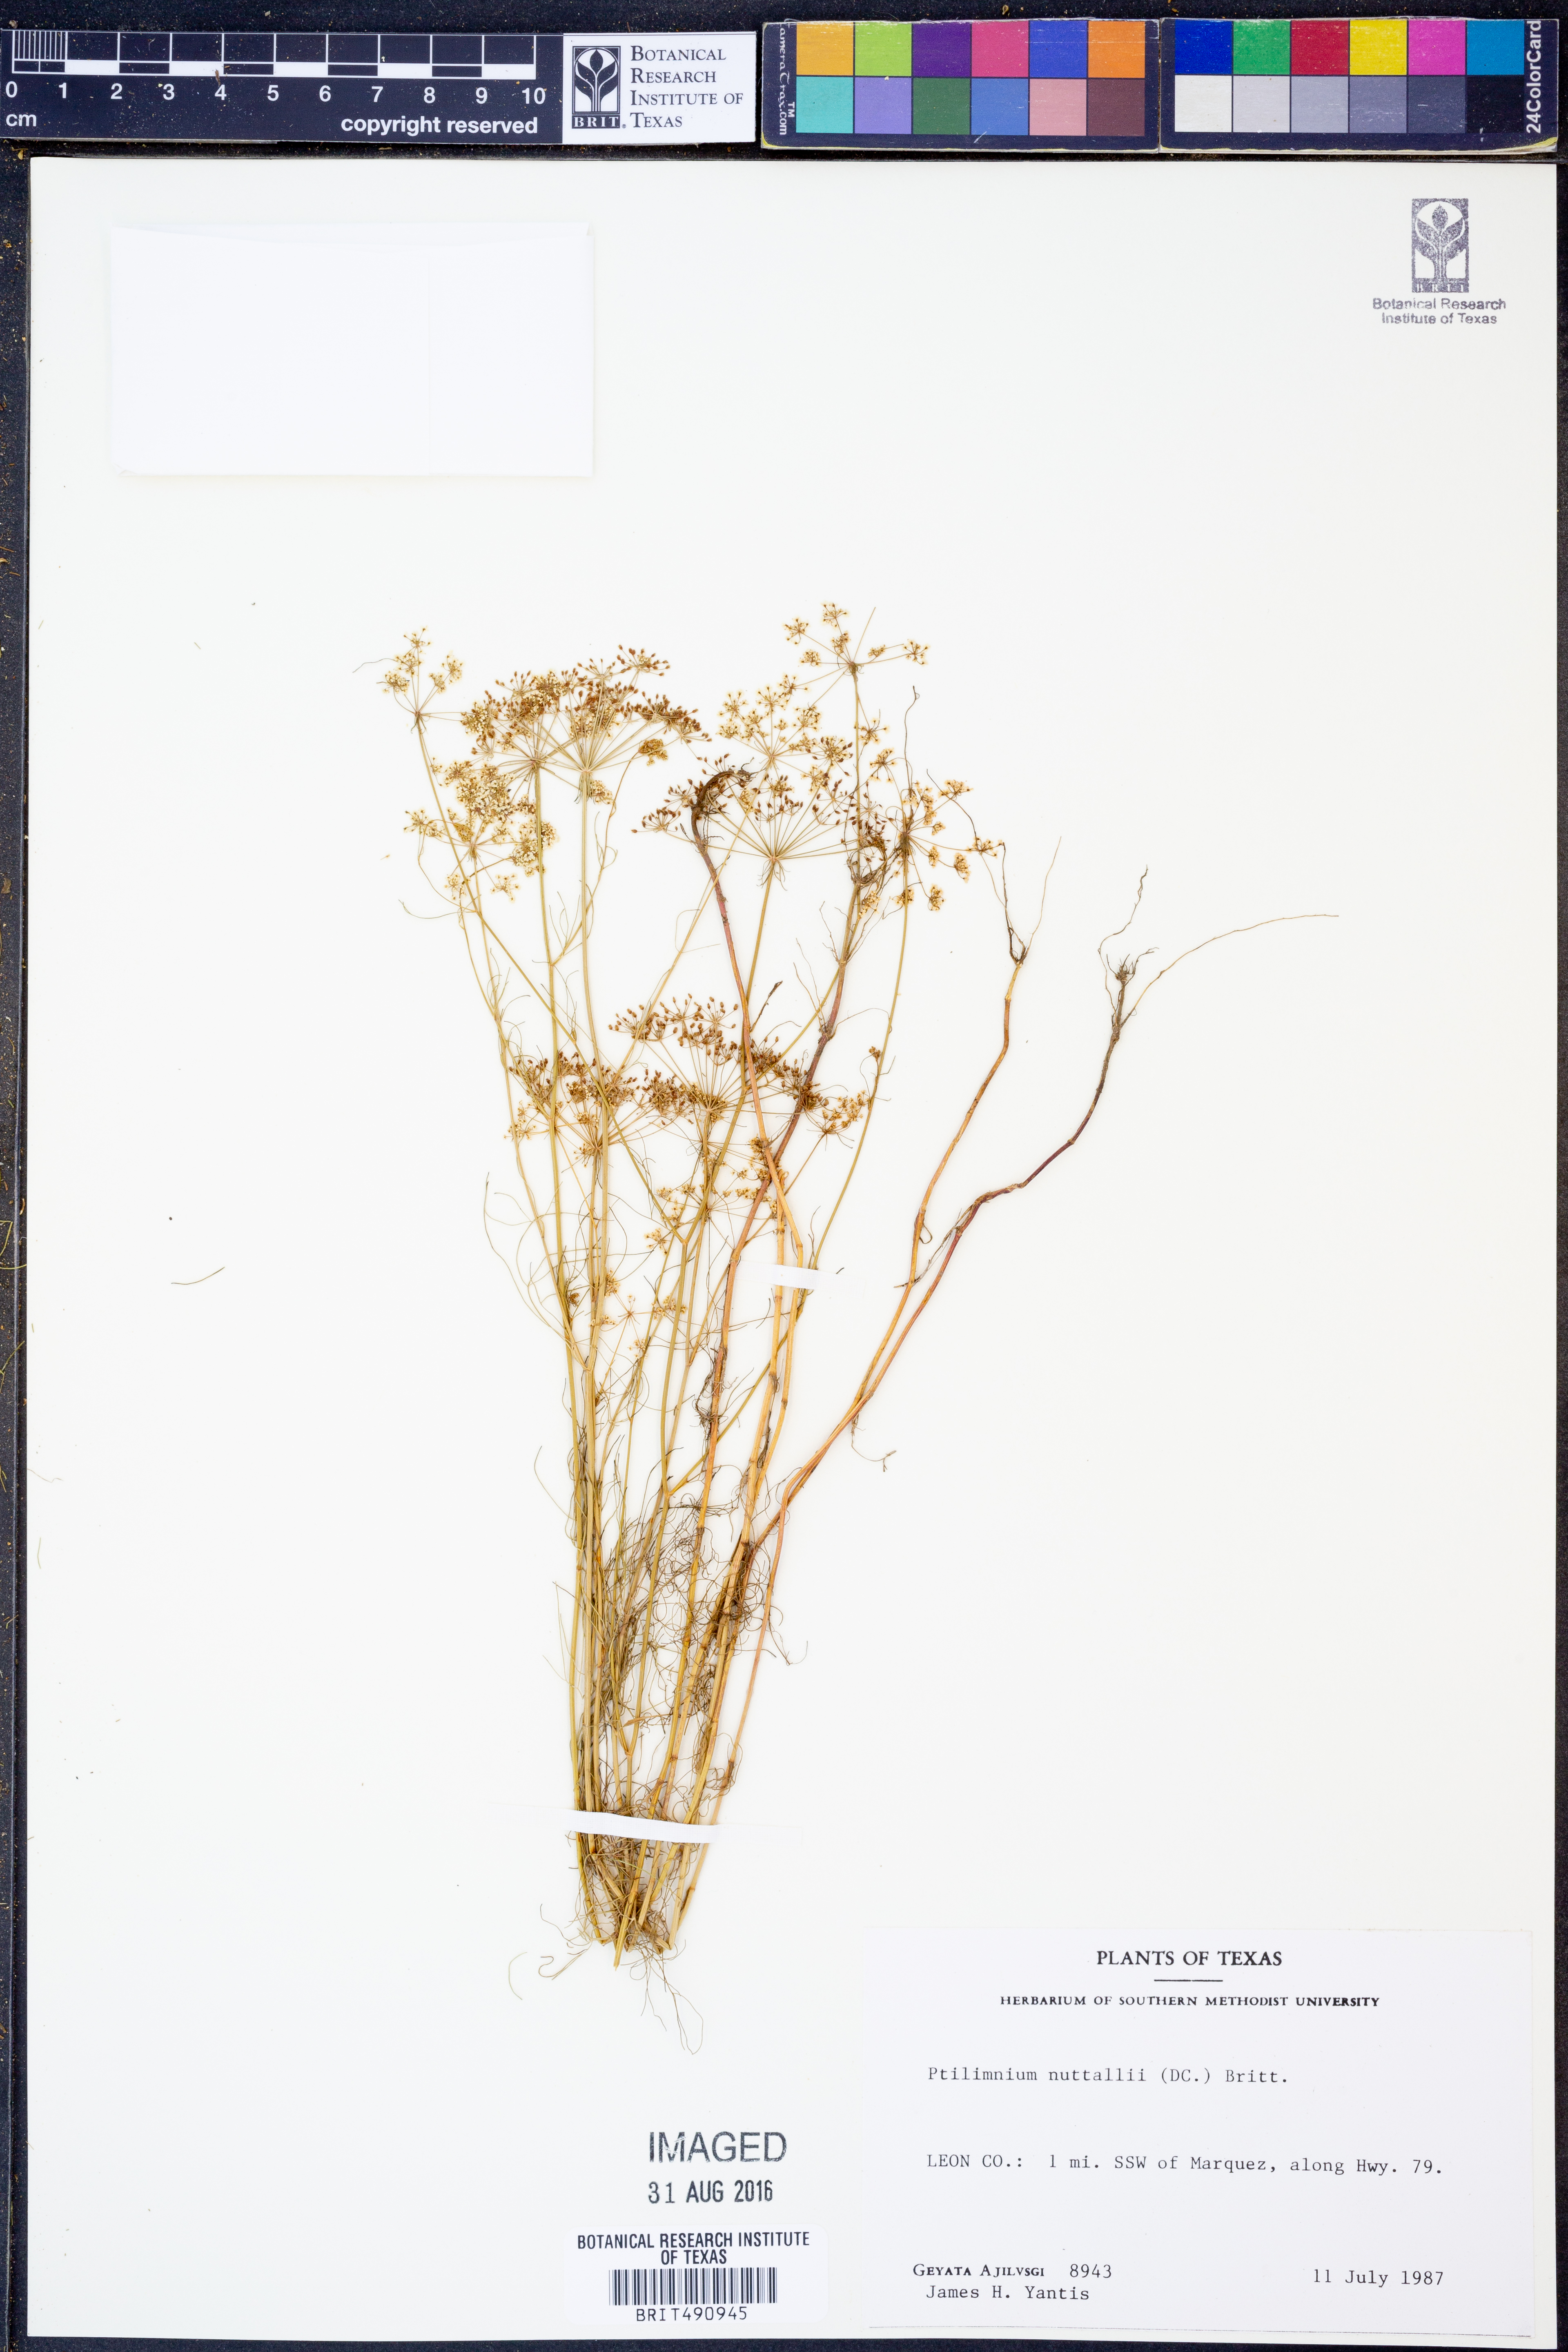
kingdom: Plantae
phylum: Tracheophyta
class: Magnoliopsida
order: Apiales
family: Apiaceae
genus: Ptilimnium
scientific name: Ptilimnium nuttallii
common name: Ozark bishop's-weed
